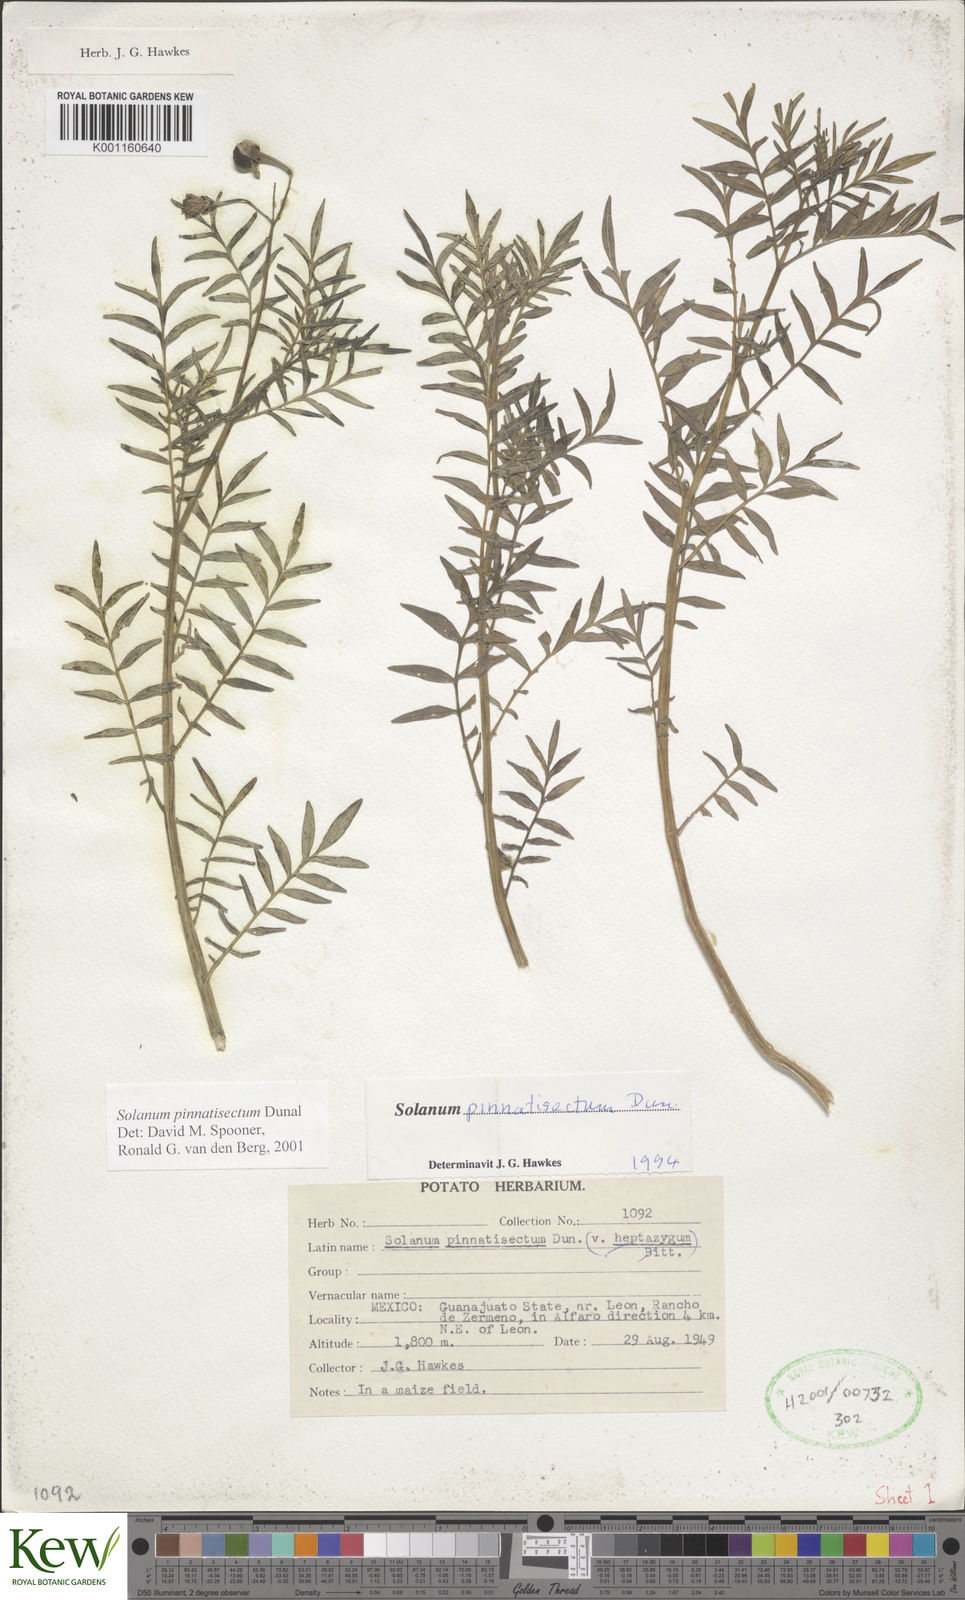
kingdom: Plantae
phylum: Tracheophyta
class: Magnoliopsida
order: Solanales
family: Solanaceae
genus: Solanum
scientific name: Solanum pinnatisectum
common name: Tansyleaf nightshade
